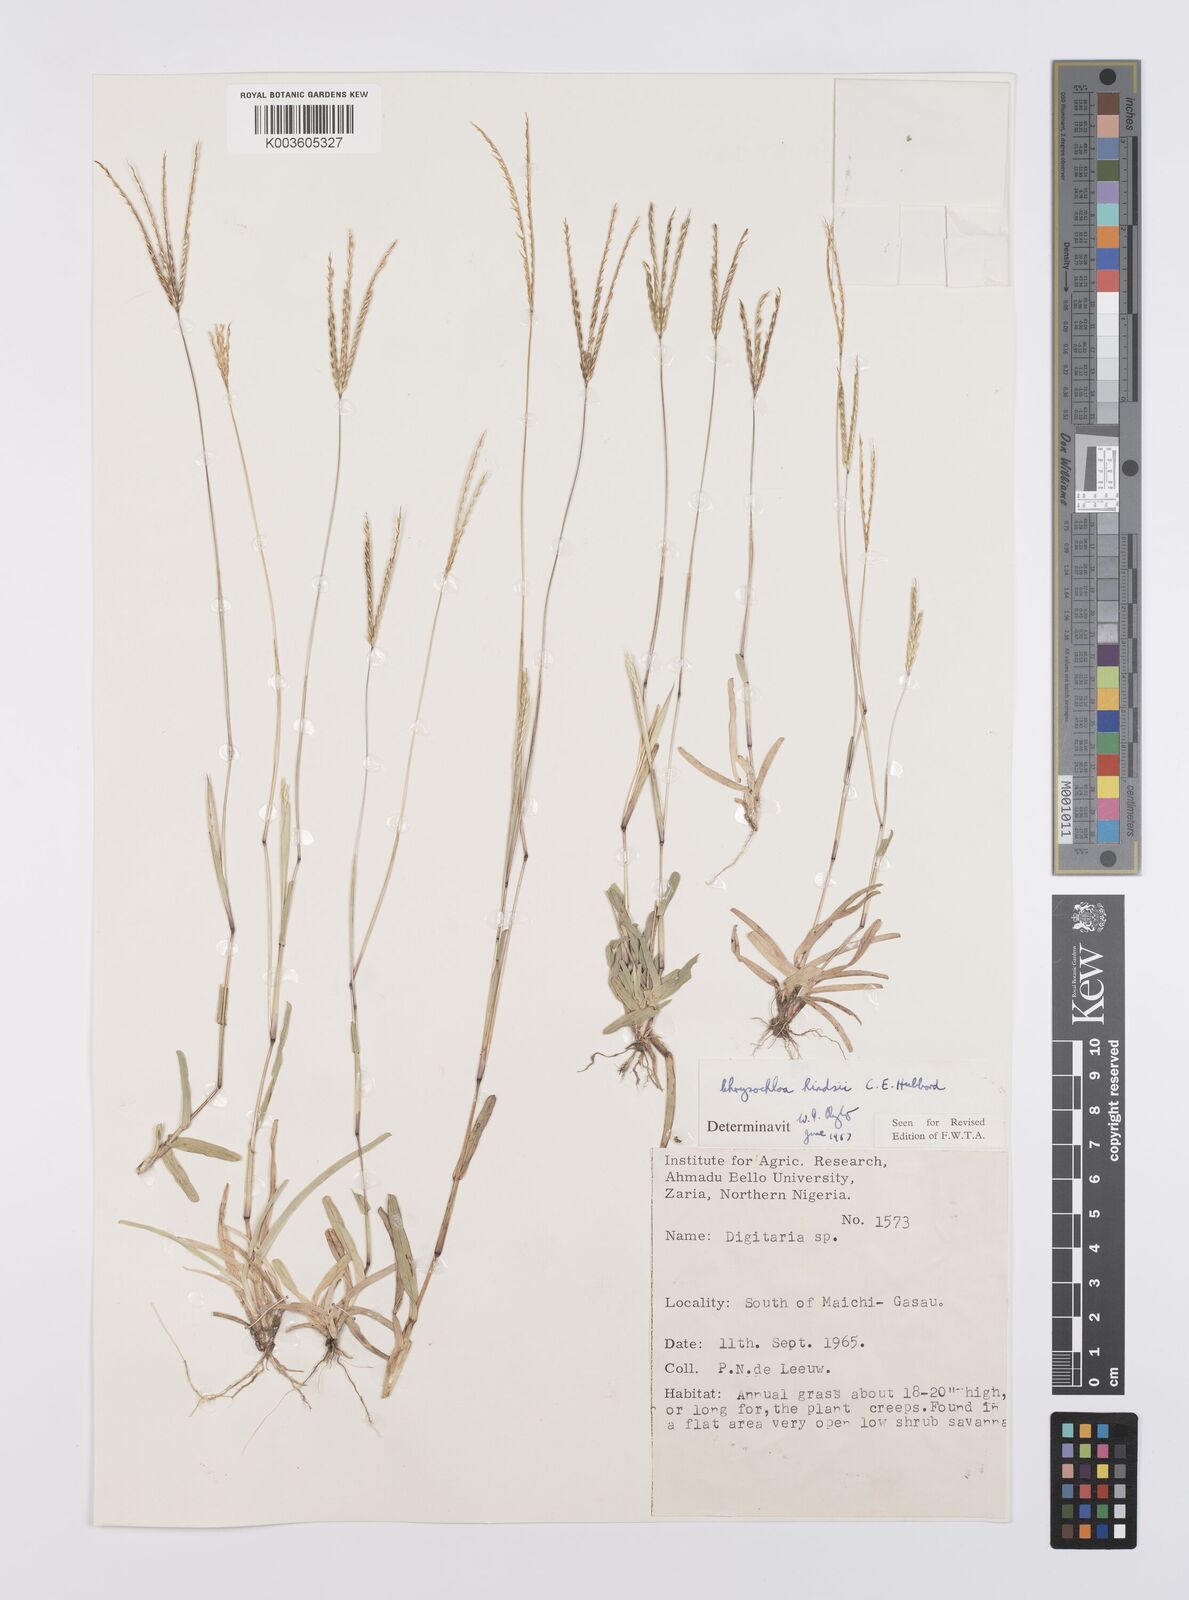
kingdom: Plantae
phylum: Tracheophyta
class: Liliopsida
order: Poales
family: Poaceae
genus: Chrysochloa
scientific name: Chrysochloa hindsii
